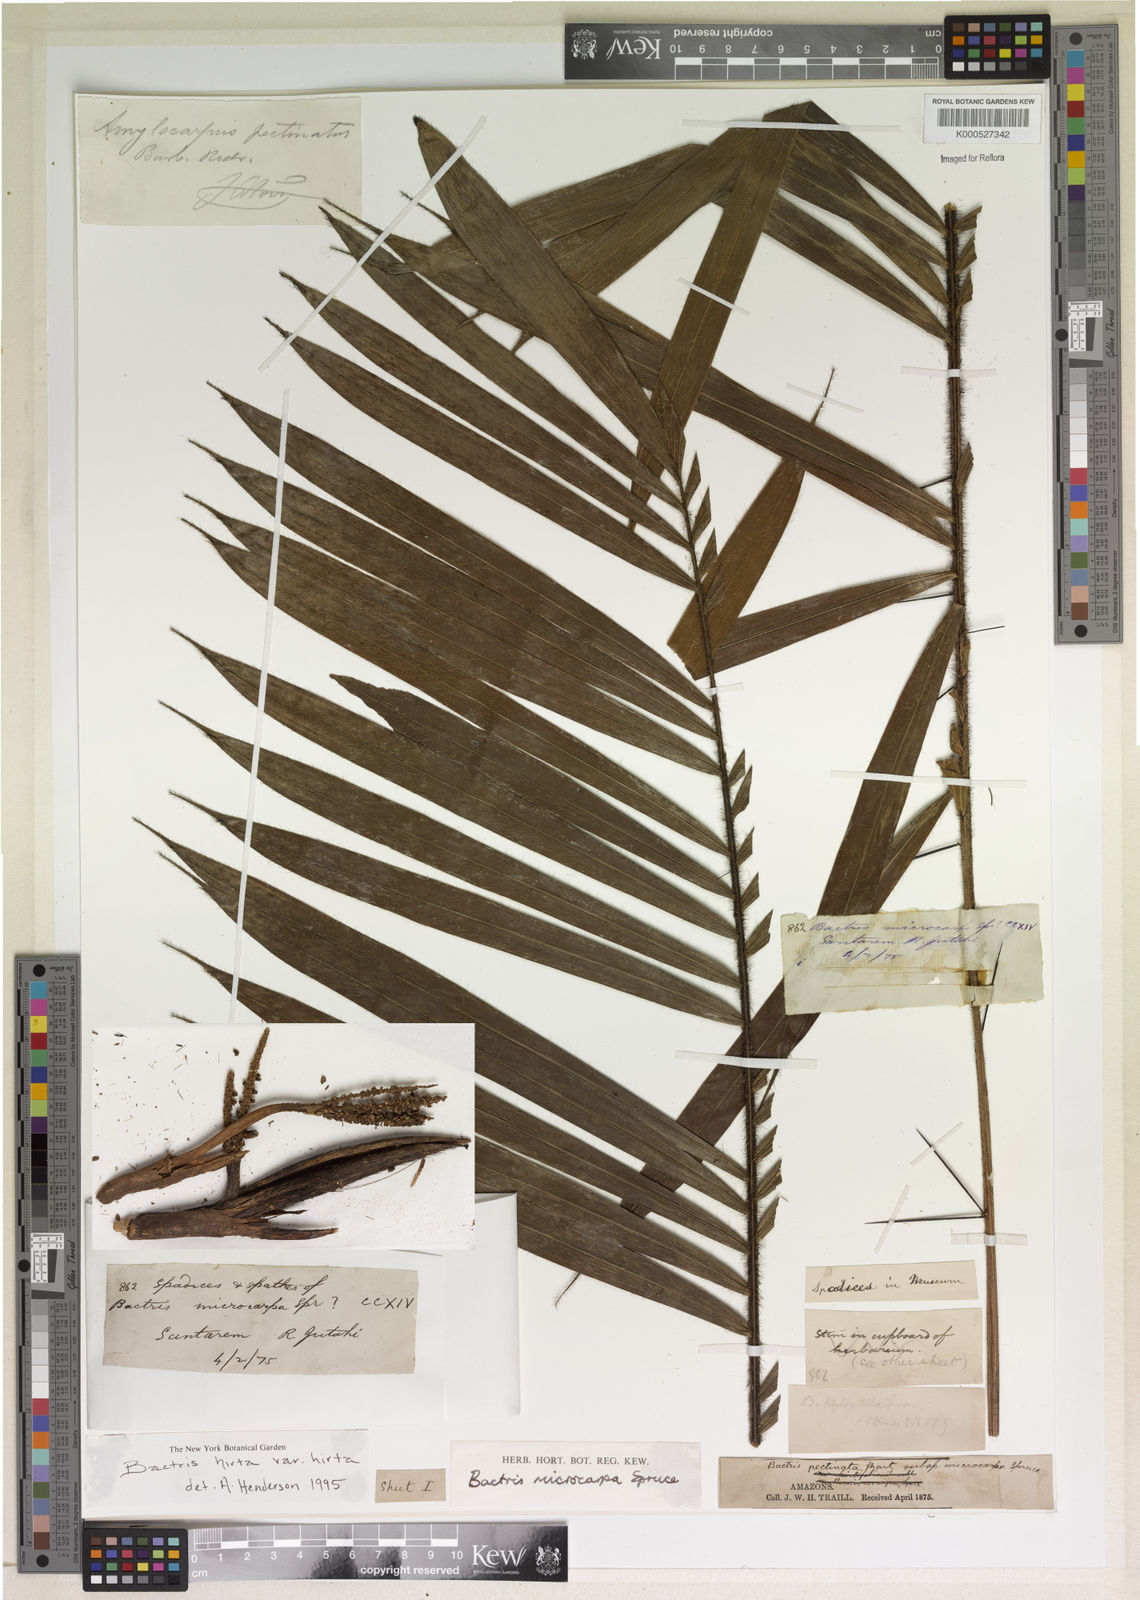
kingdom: Plantae
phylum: Tracheophyta
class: Liliopsida
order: Arecales
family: Arecaceae
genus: Bactris
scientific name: Bactris hirta
